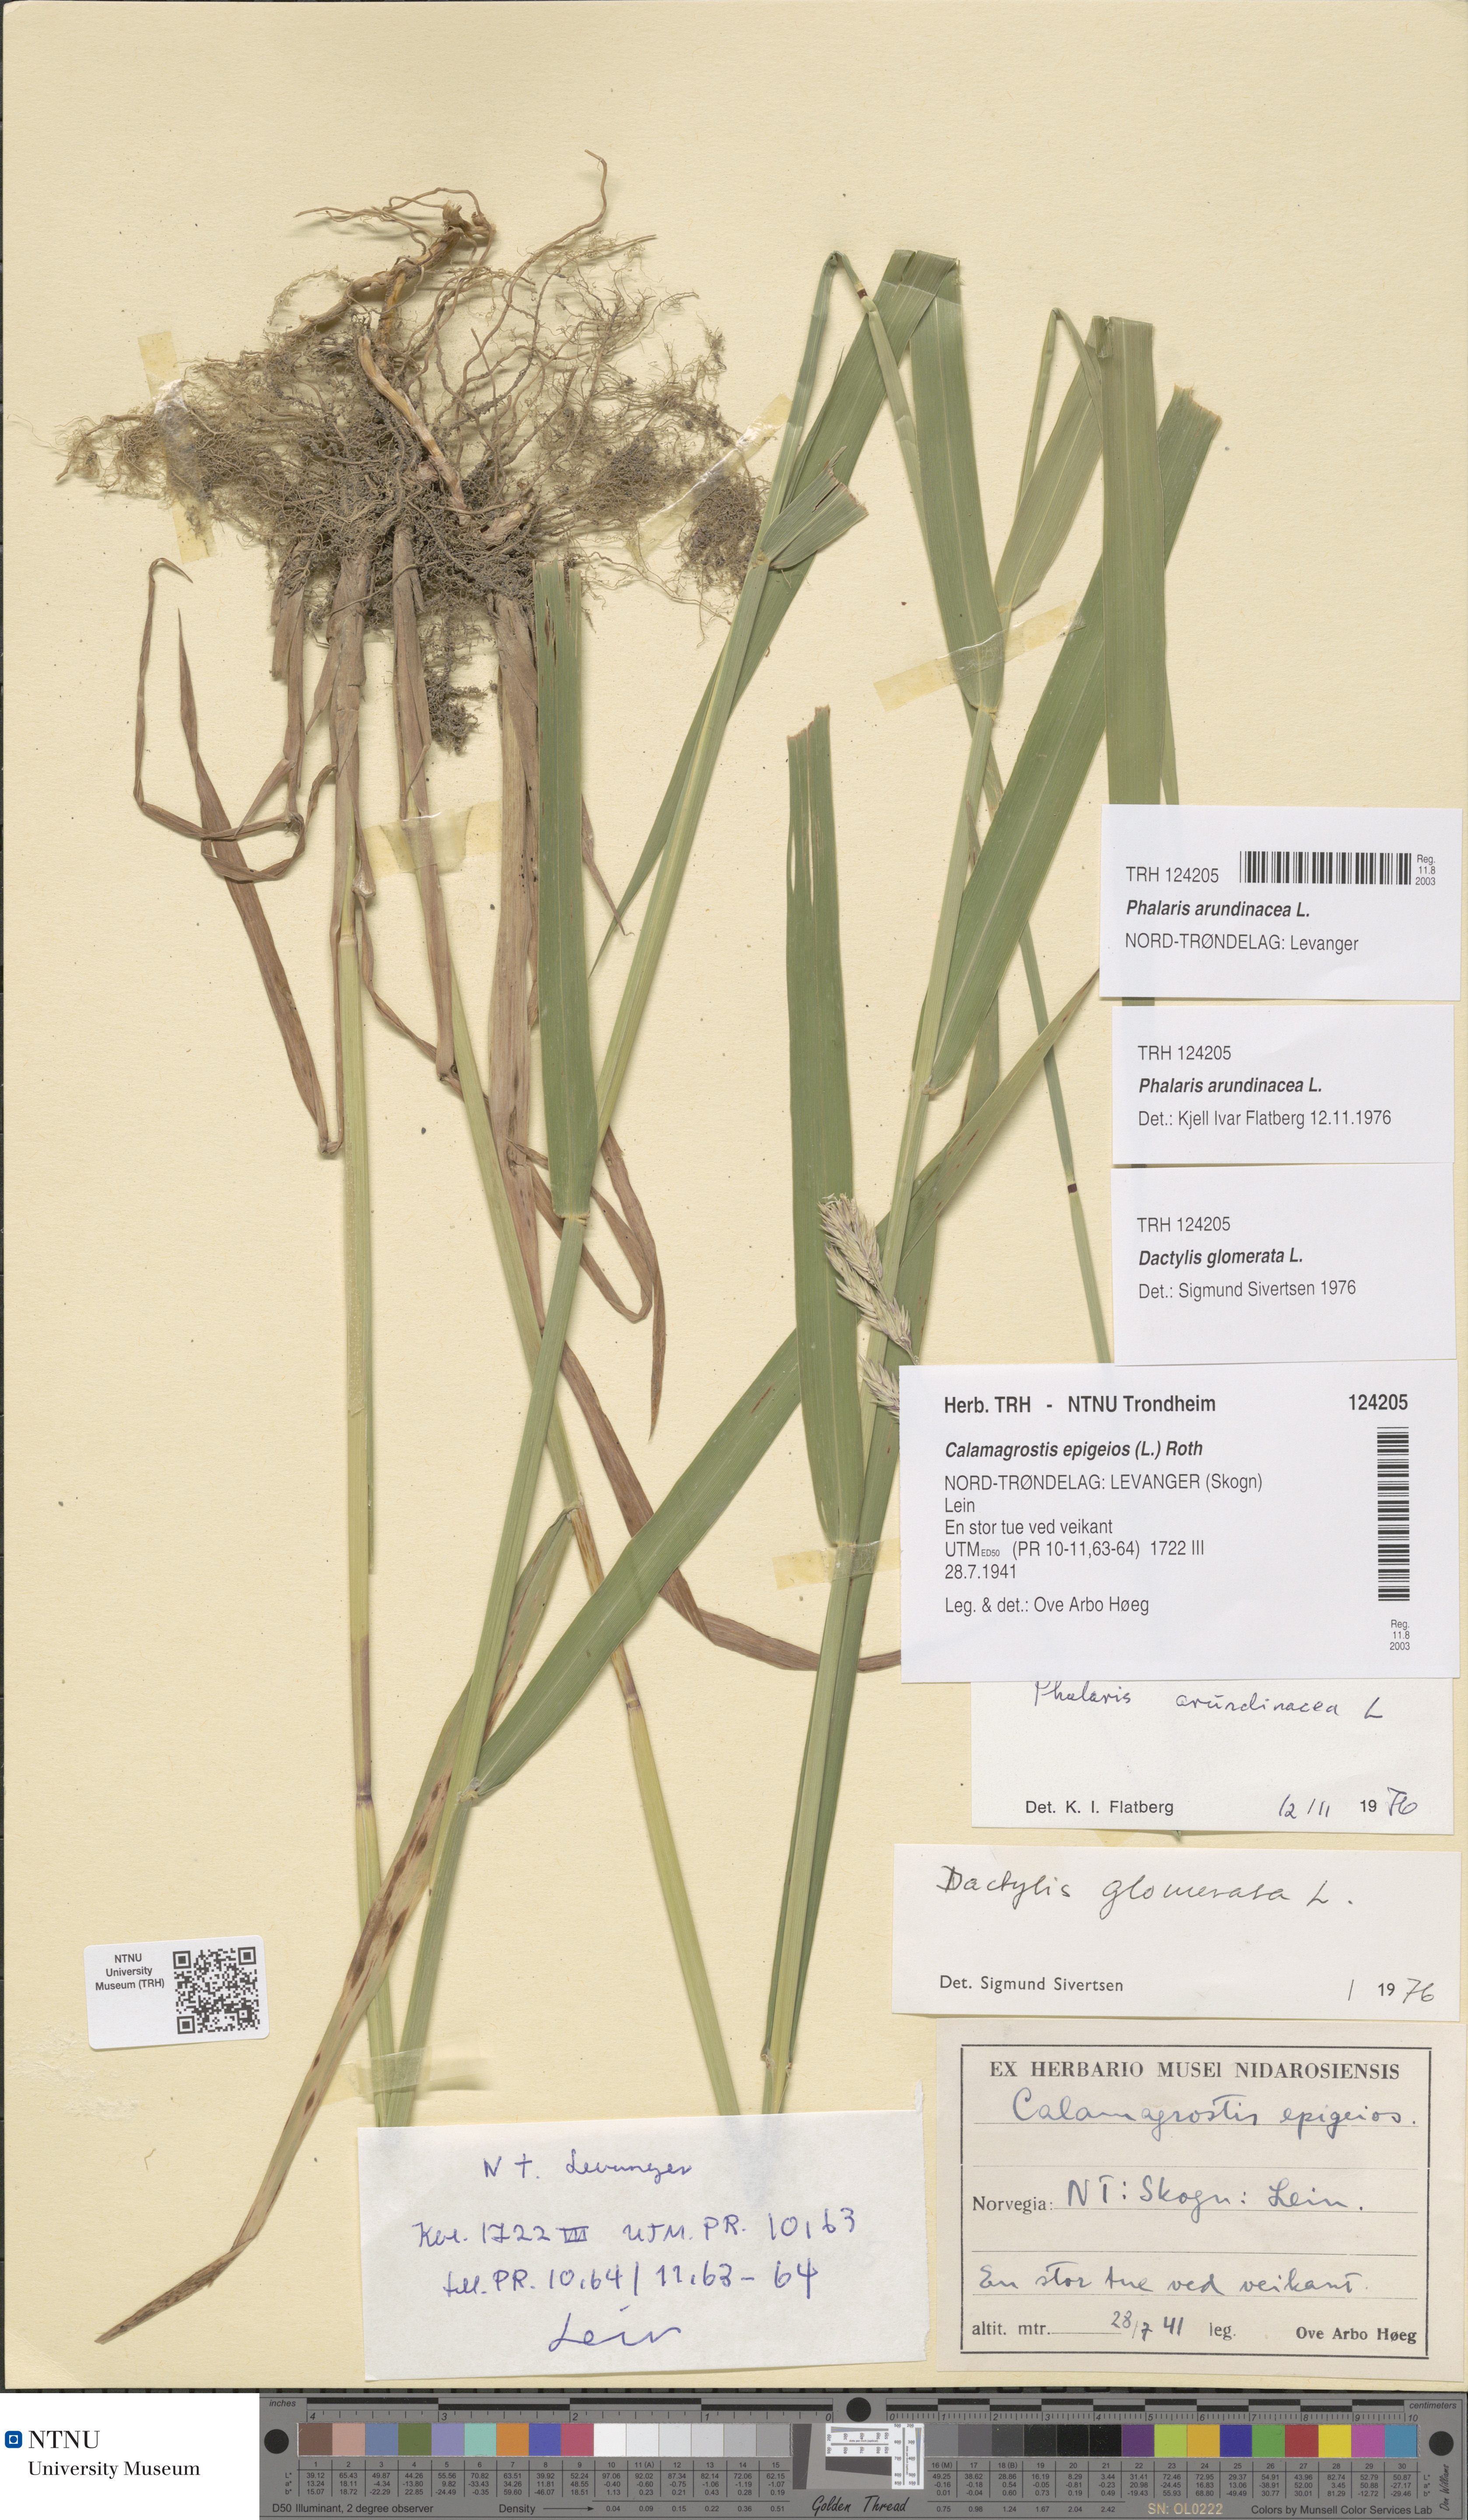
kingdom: Plantae
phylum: Tracheophyta
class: Liliopsida
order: Poales
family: Poaceae
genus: Phalaris
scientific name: Phalaris arundinacea
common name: Reed canary-grass
